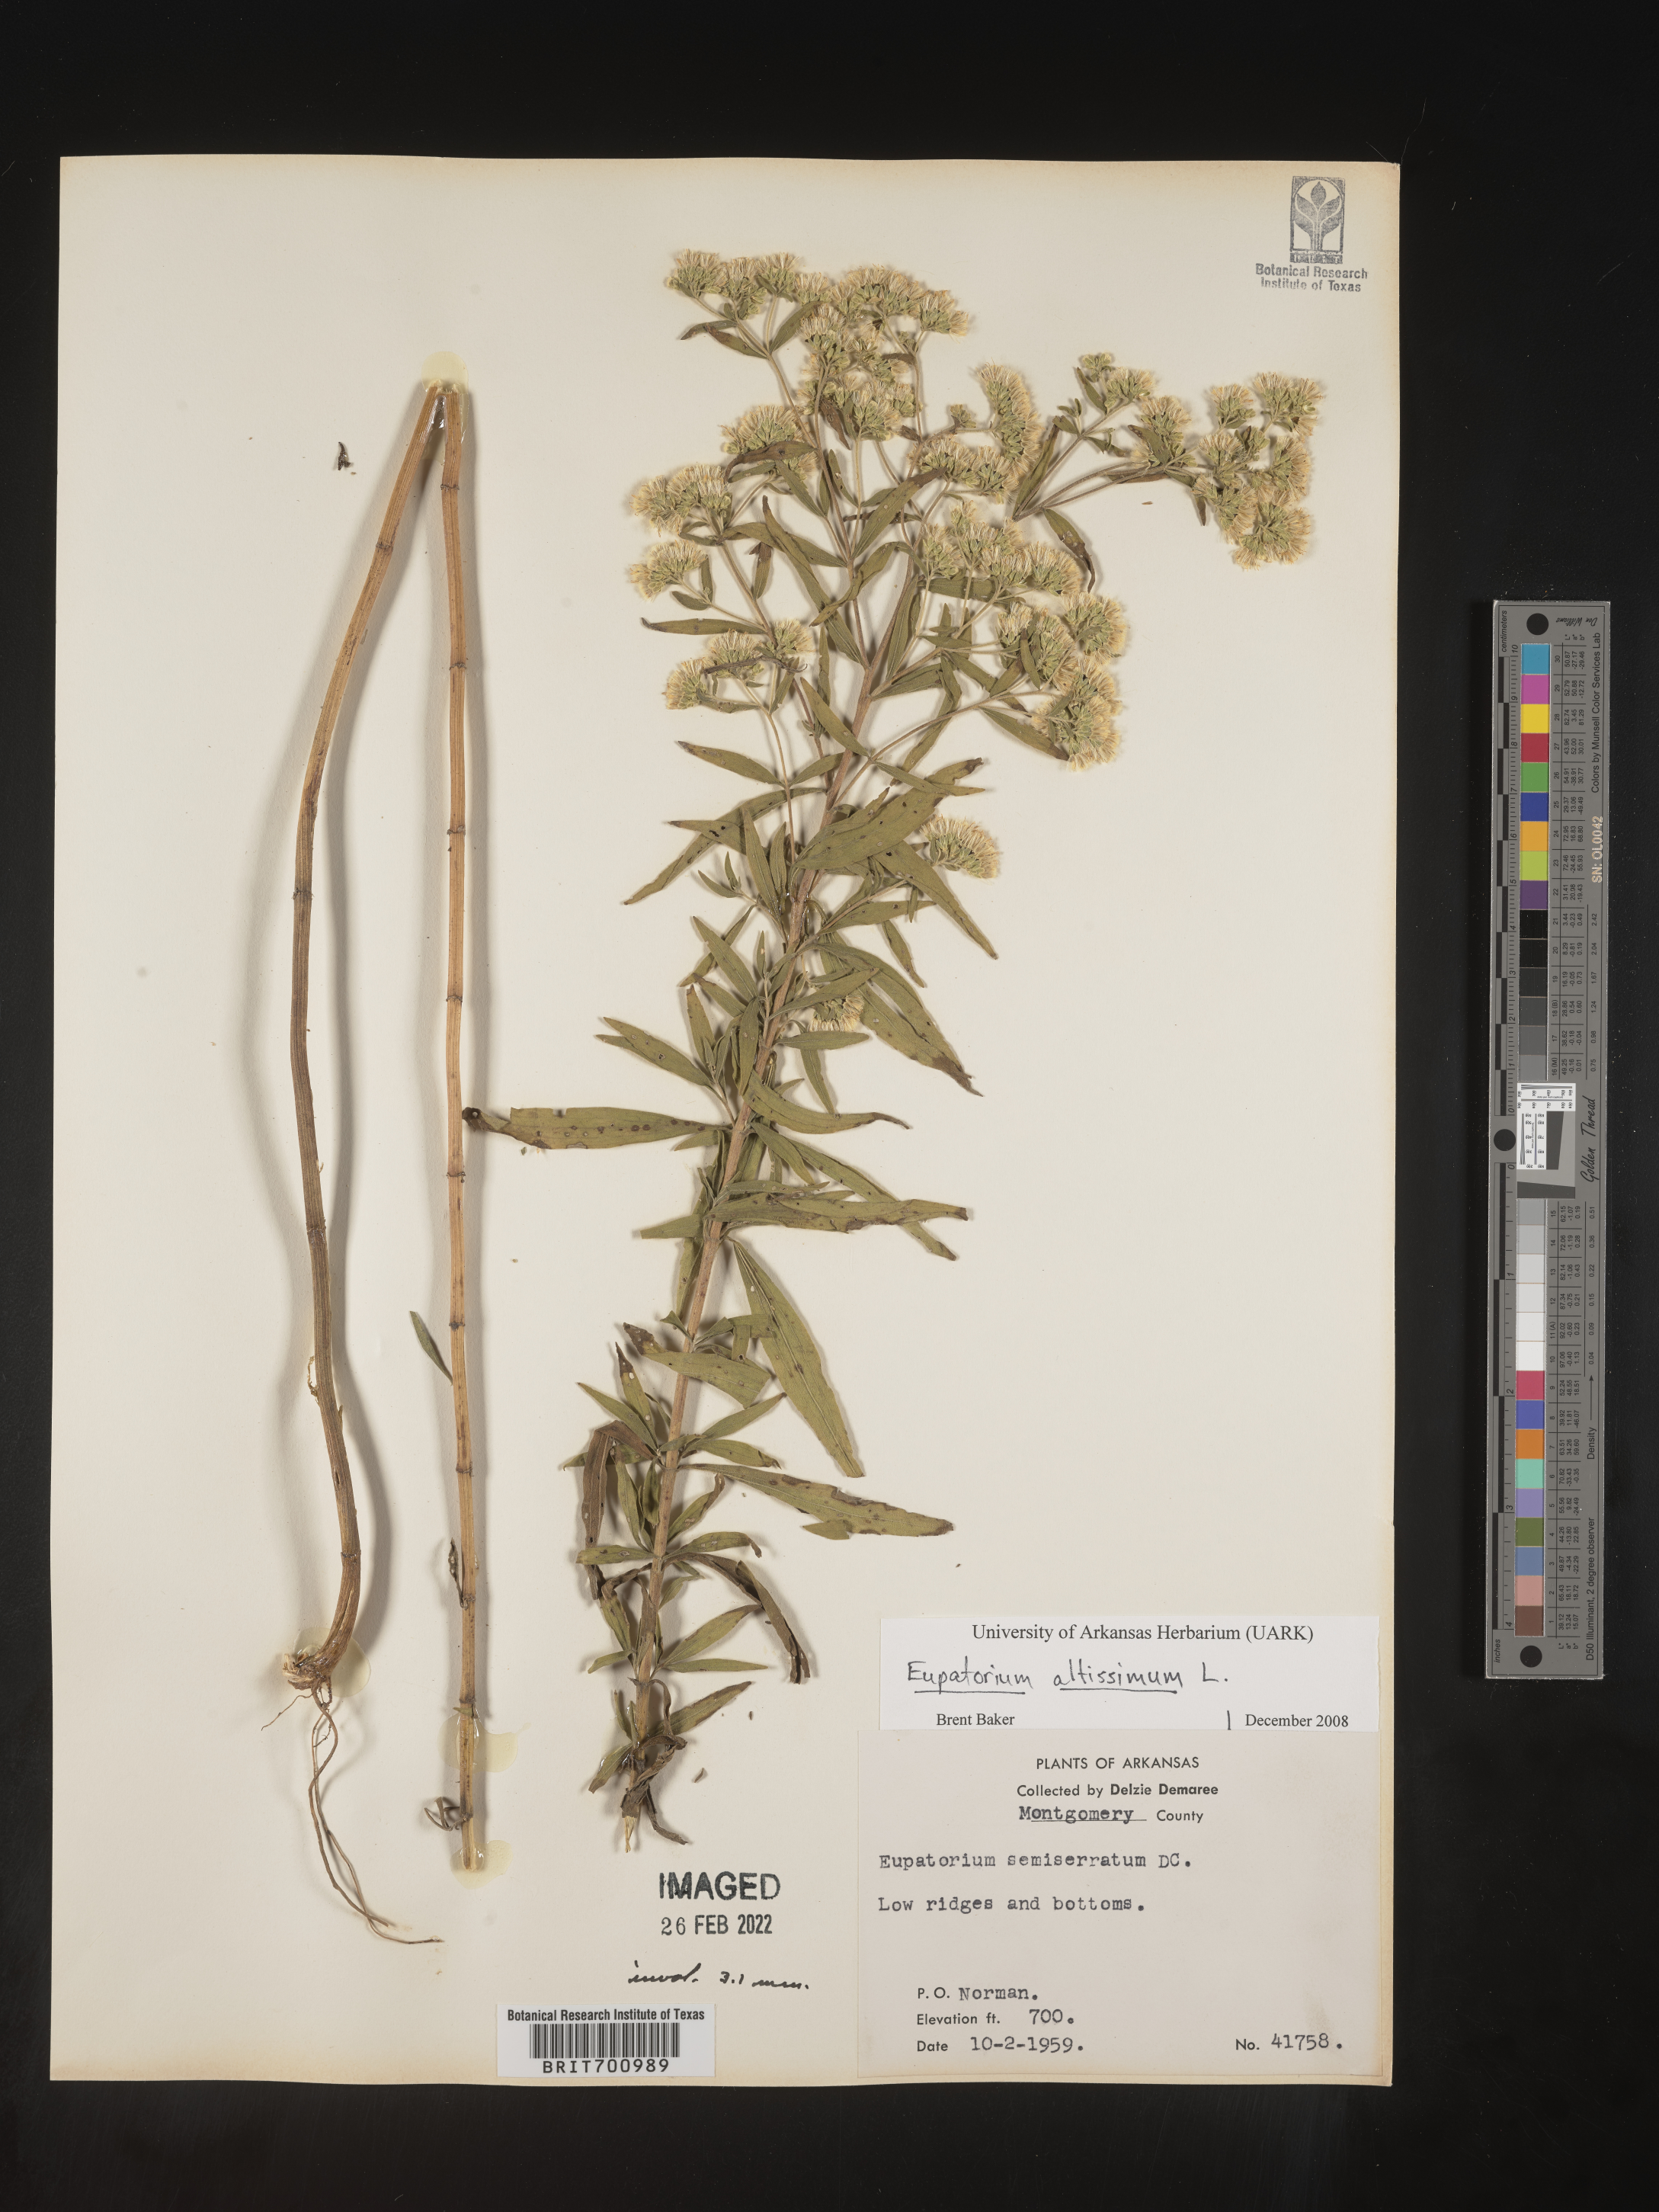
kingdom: Plantae
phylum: Tracheophyta
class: Magnoliopsida
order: Asterales
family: Asteraceae
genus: Eupatorium
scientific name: Eupatorium altissimum
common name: Tall thoroughwort
